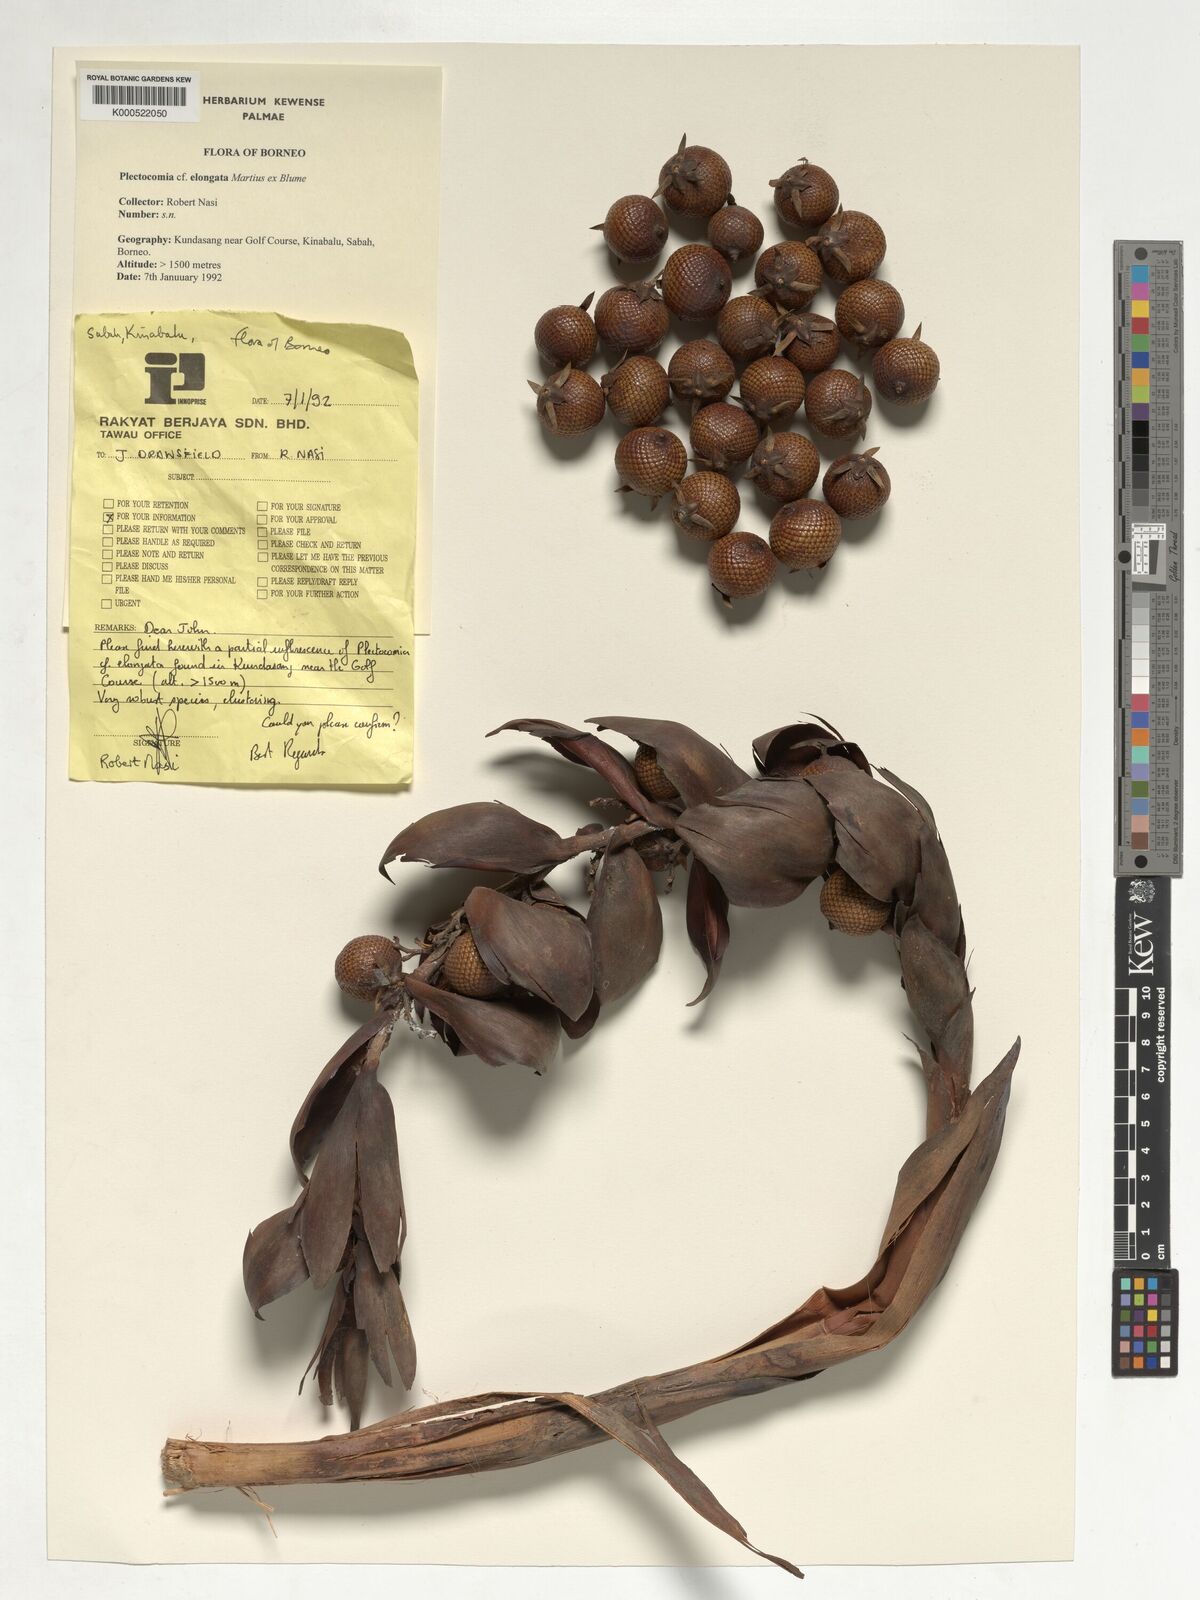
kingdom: Plantae
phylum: Tracheophyta
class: Liliopsida
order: Arecales
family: Arecaceae
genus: Plectocomia
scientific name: Plectocomia elongata
